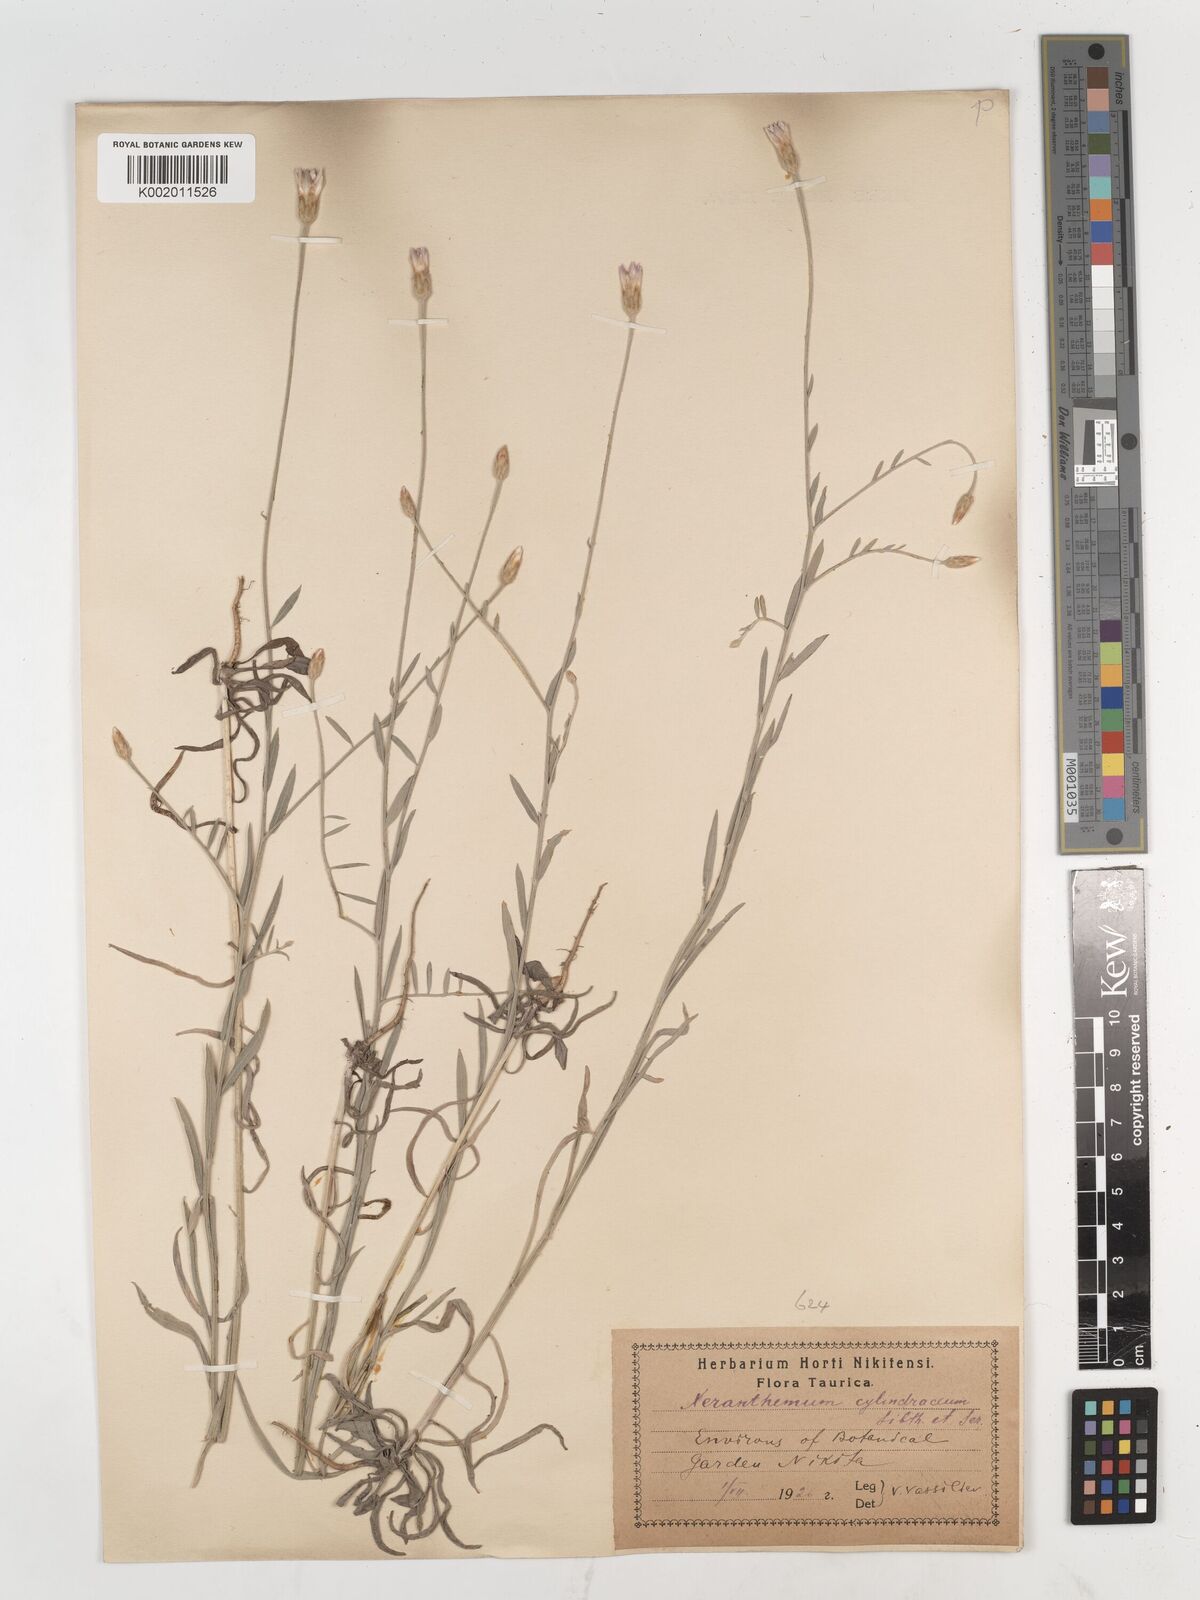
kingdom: Plantae
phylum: Tracheophyta
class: Magnoliopsida
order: Asterales
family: Asteraceae
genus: Xeranthemum
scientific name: Xeranthemum cylindraceum
